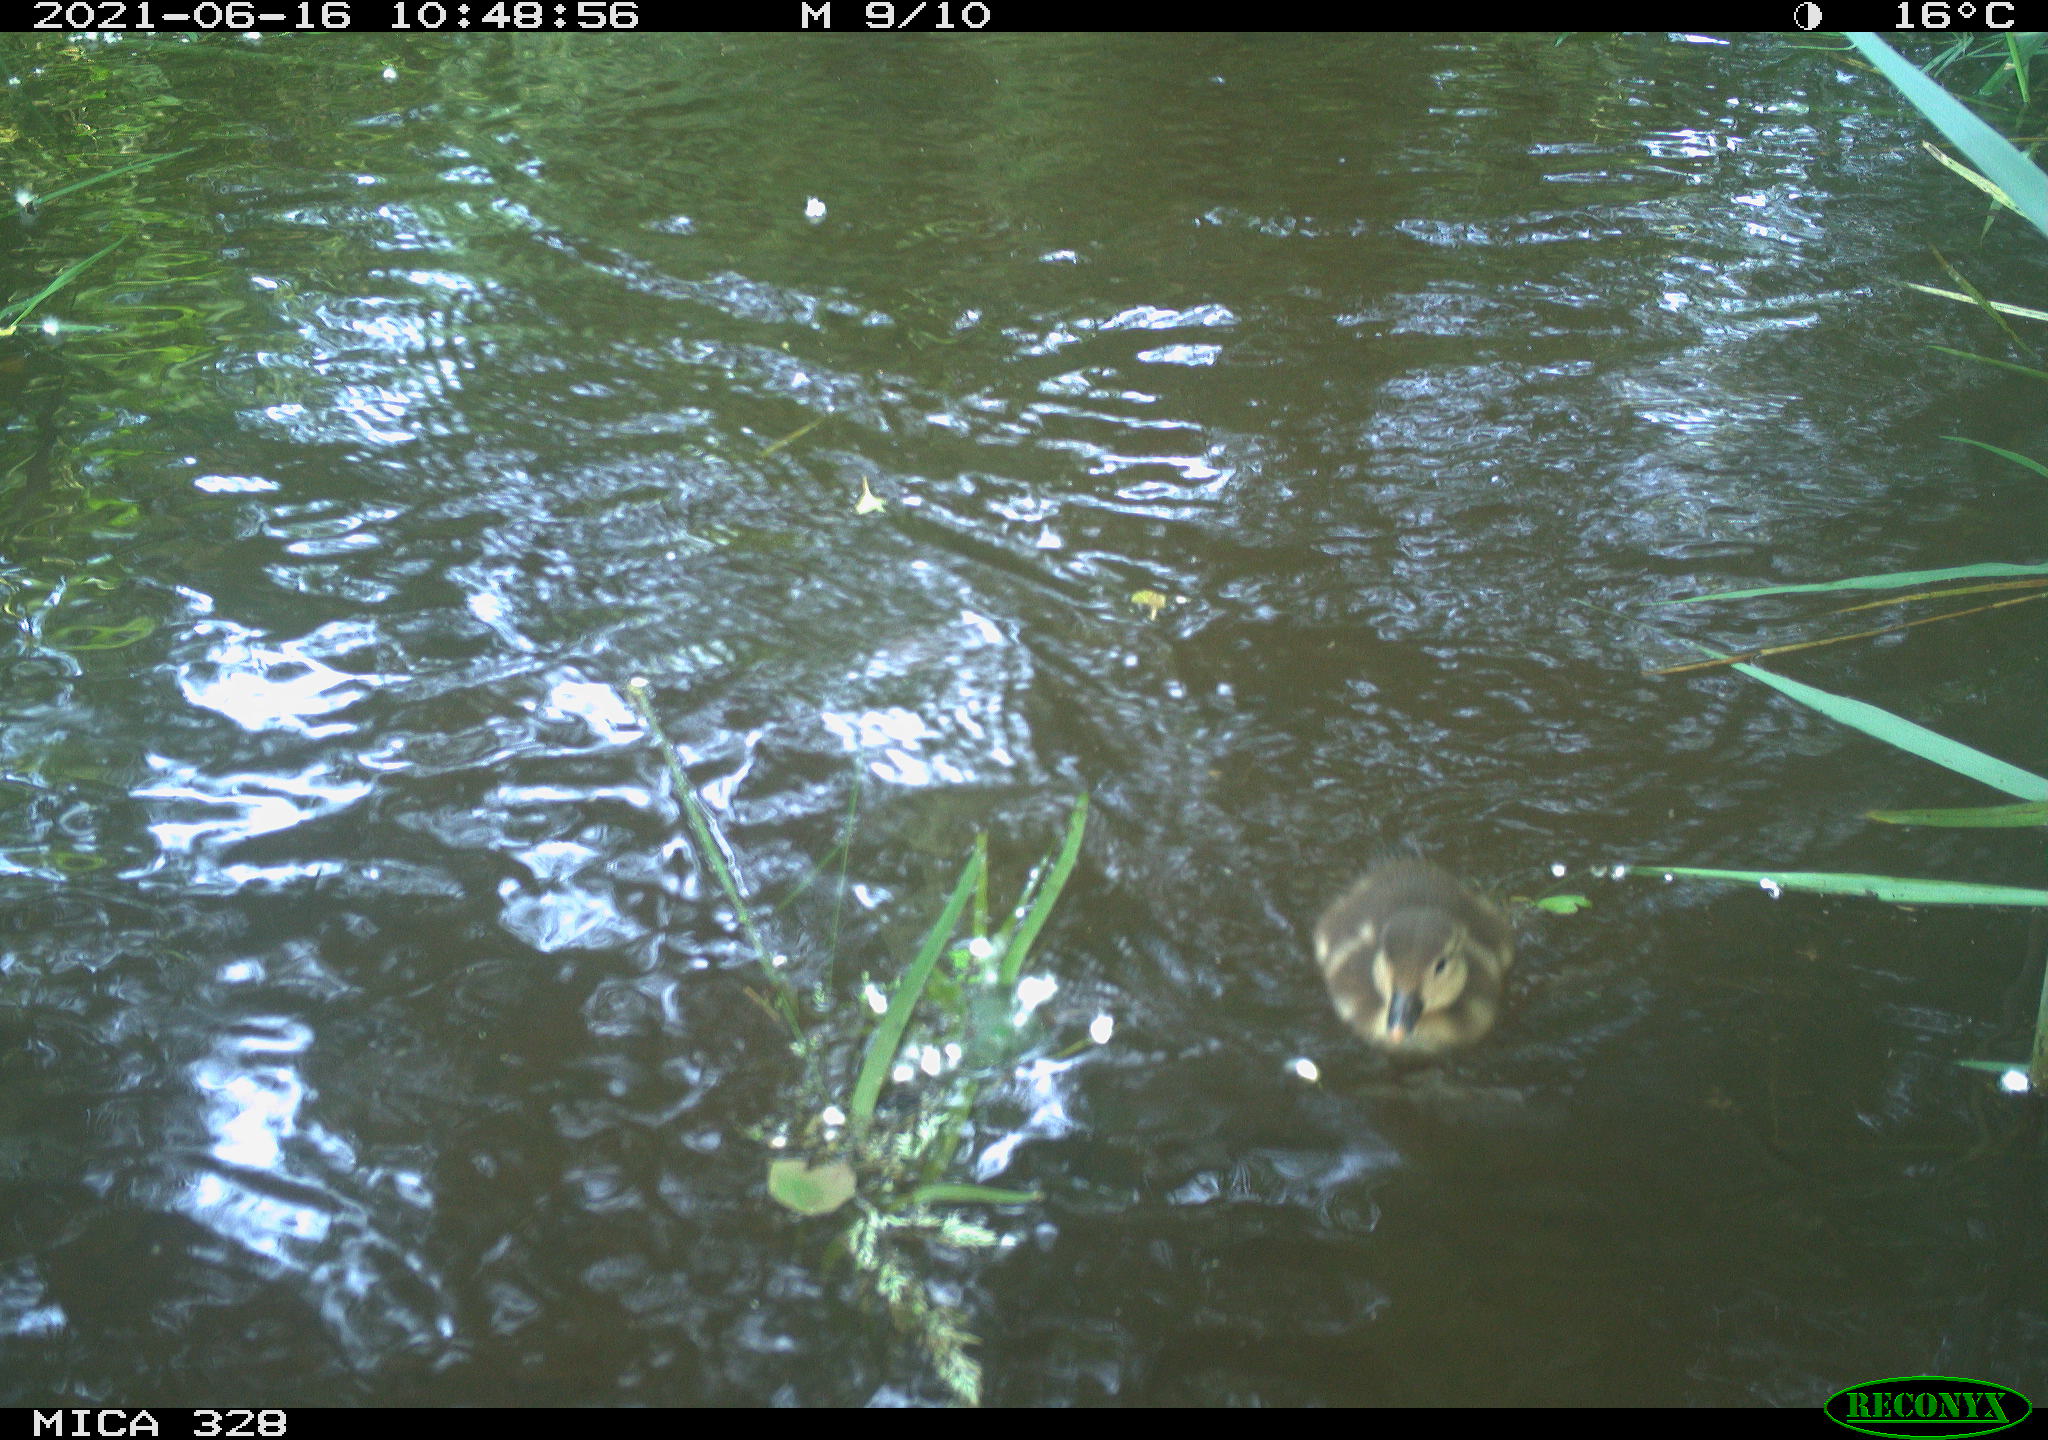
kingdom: Animalia
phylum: Chordata
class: Aves
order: Anseriformes
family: Anatidae
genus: Aix
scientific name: Aix galericulata
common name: Mandarin duck
